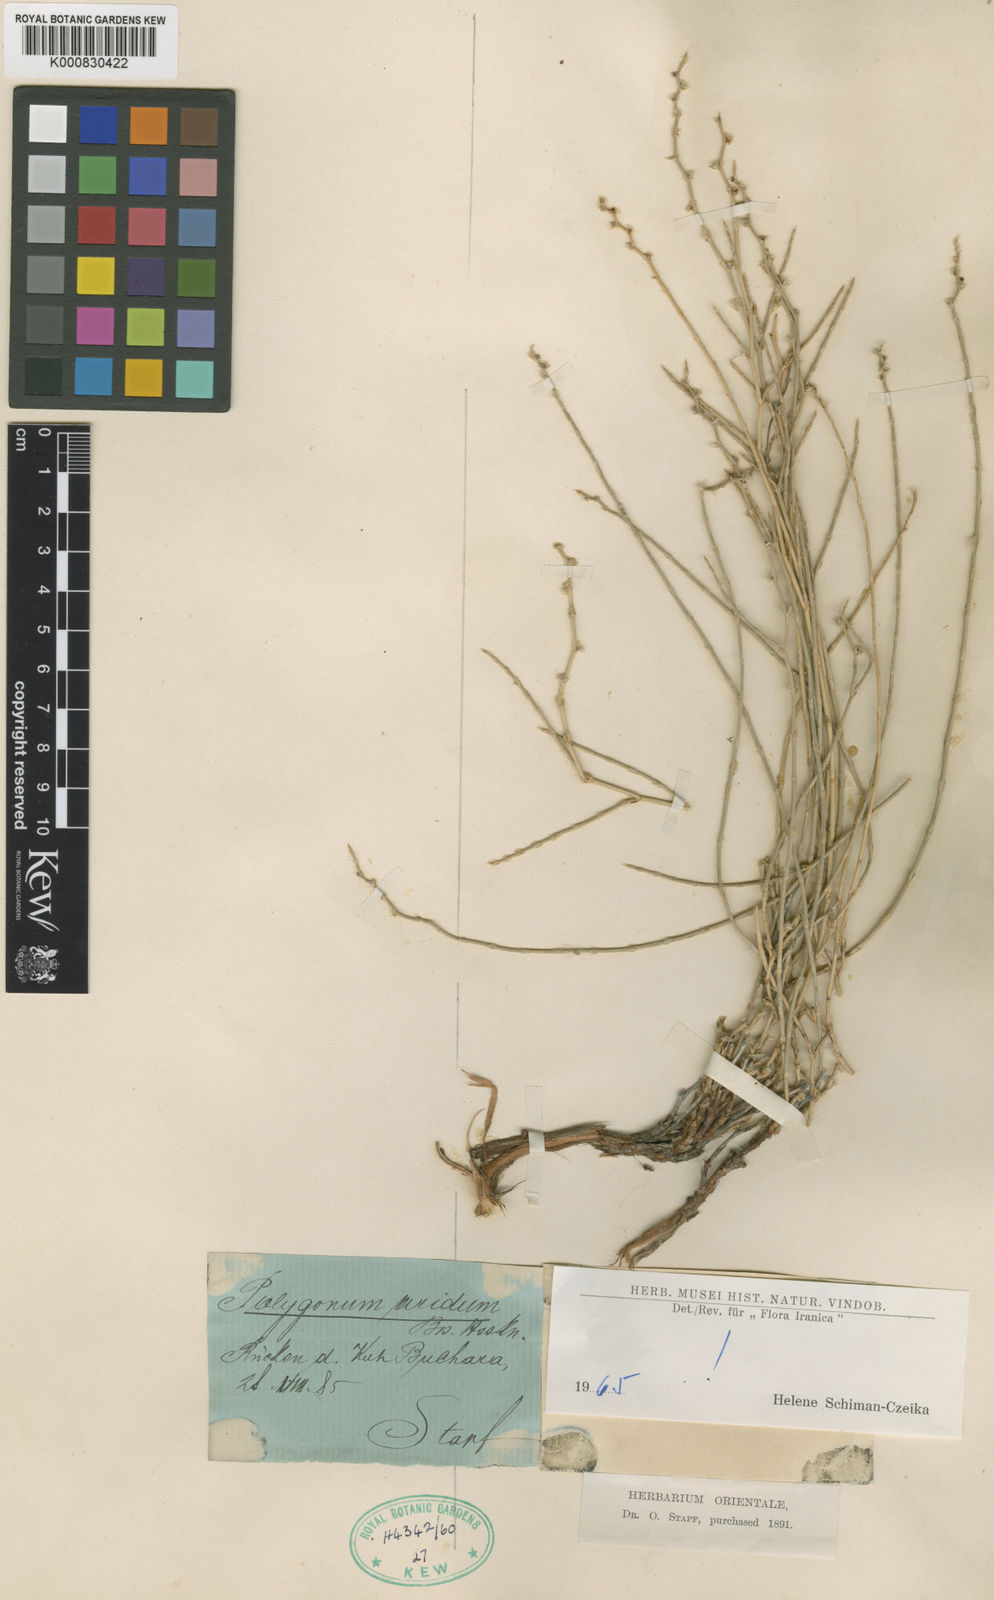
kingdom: Plantae
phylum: Tracheophyta
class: Magnoliopsida
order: Caryophyllales
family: Polygonaceae
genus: Atraphaxis
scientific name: Atraphaxis arida
